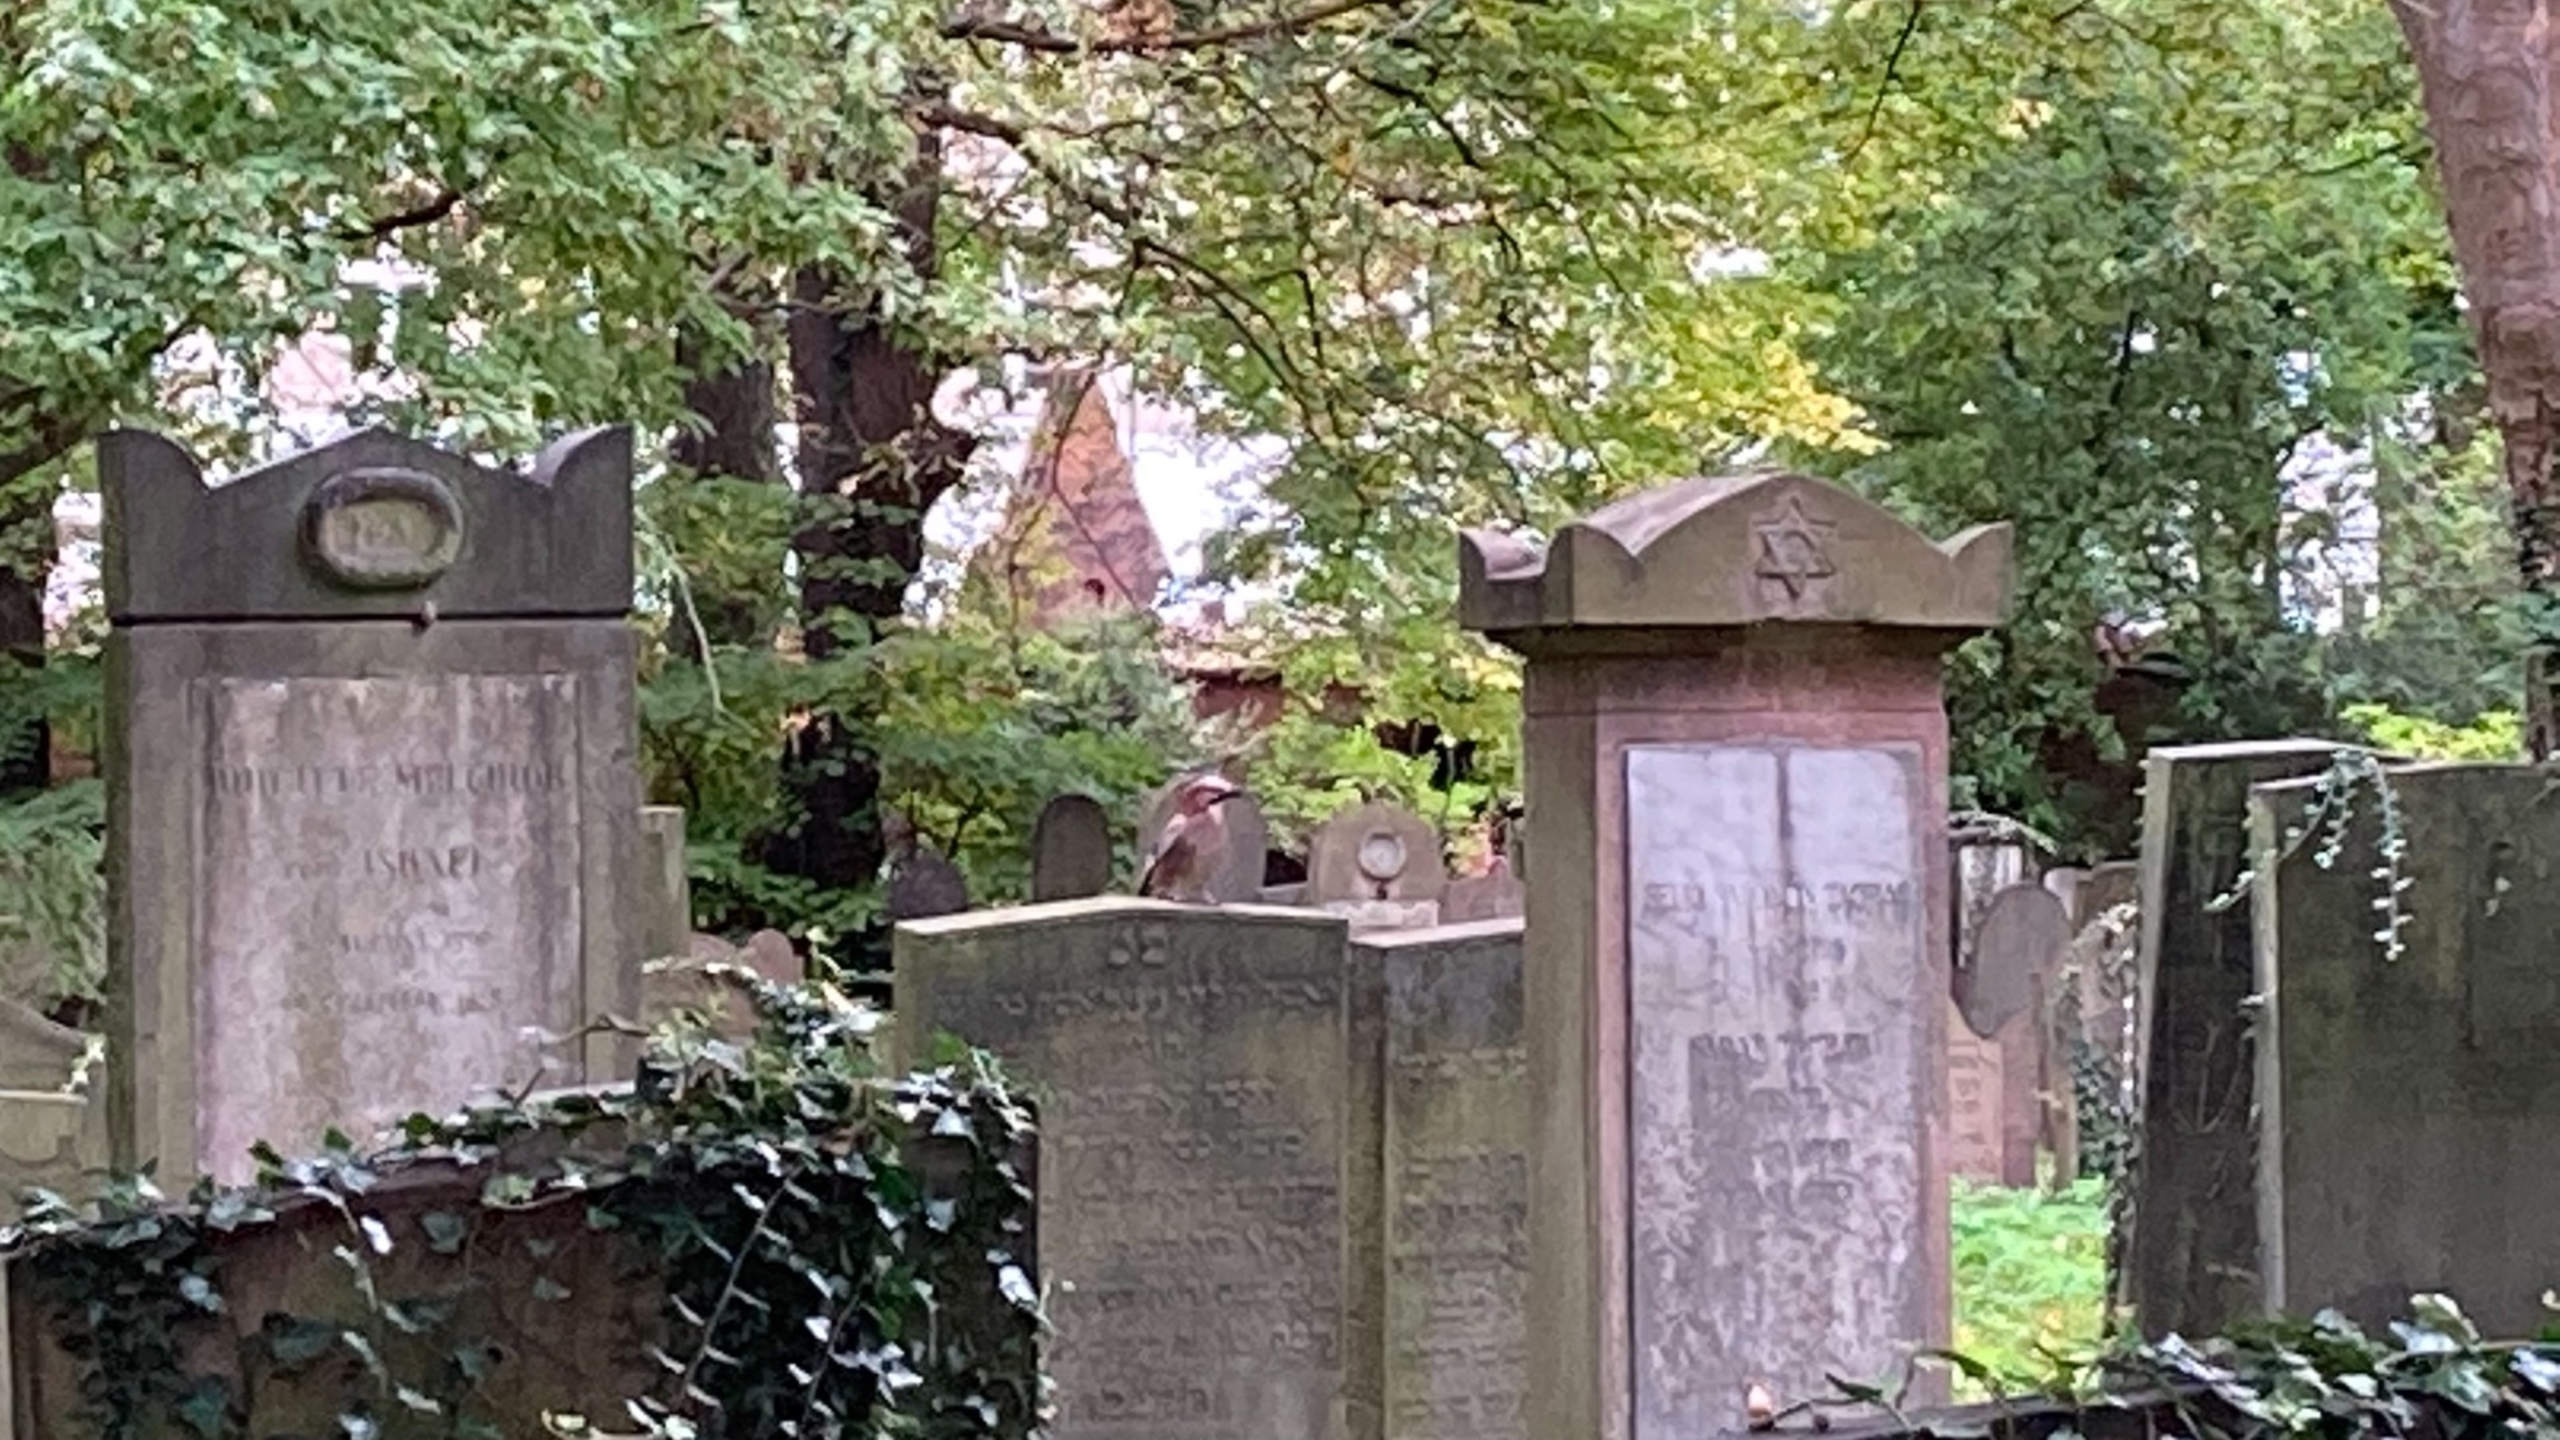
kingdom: Animalia
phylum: Chordata
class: Aves
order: Passeriformes
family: Corvidae
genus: Garrulus
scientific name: Garrulus glandarius
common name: Skovskade
